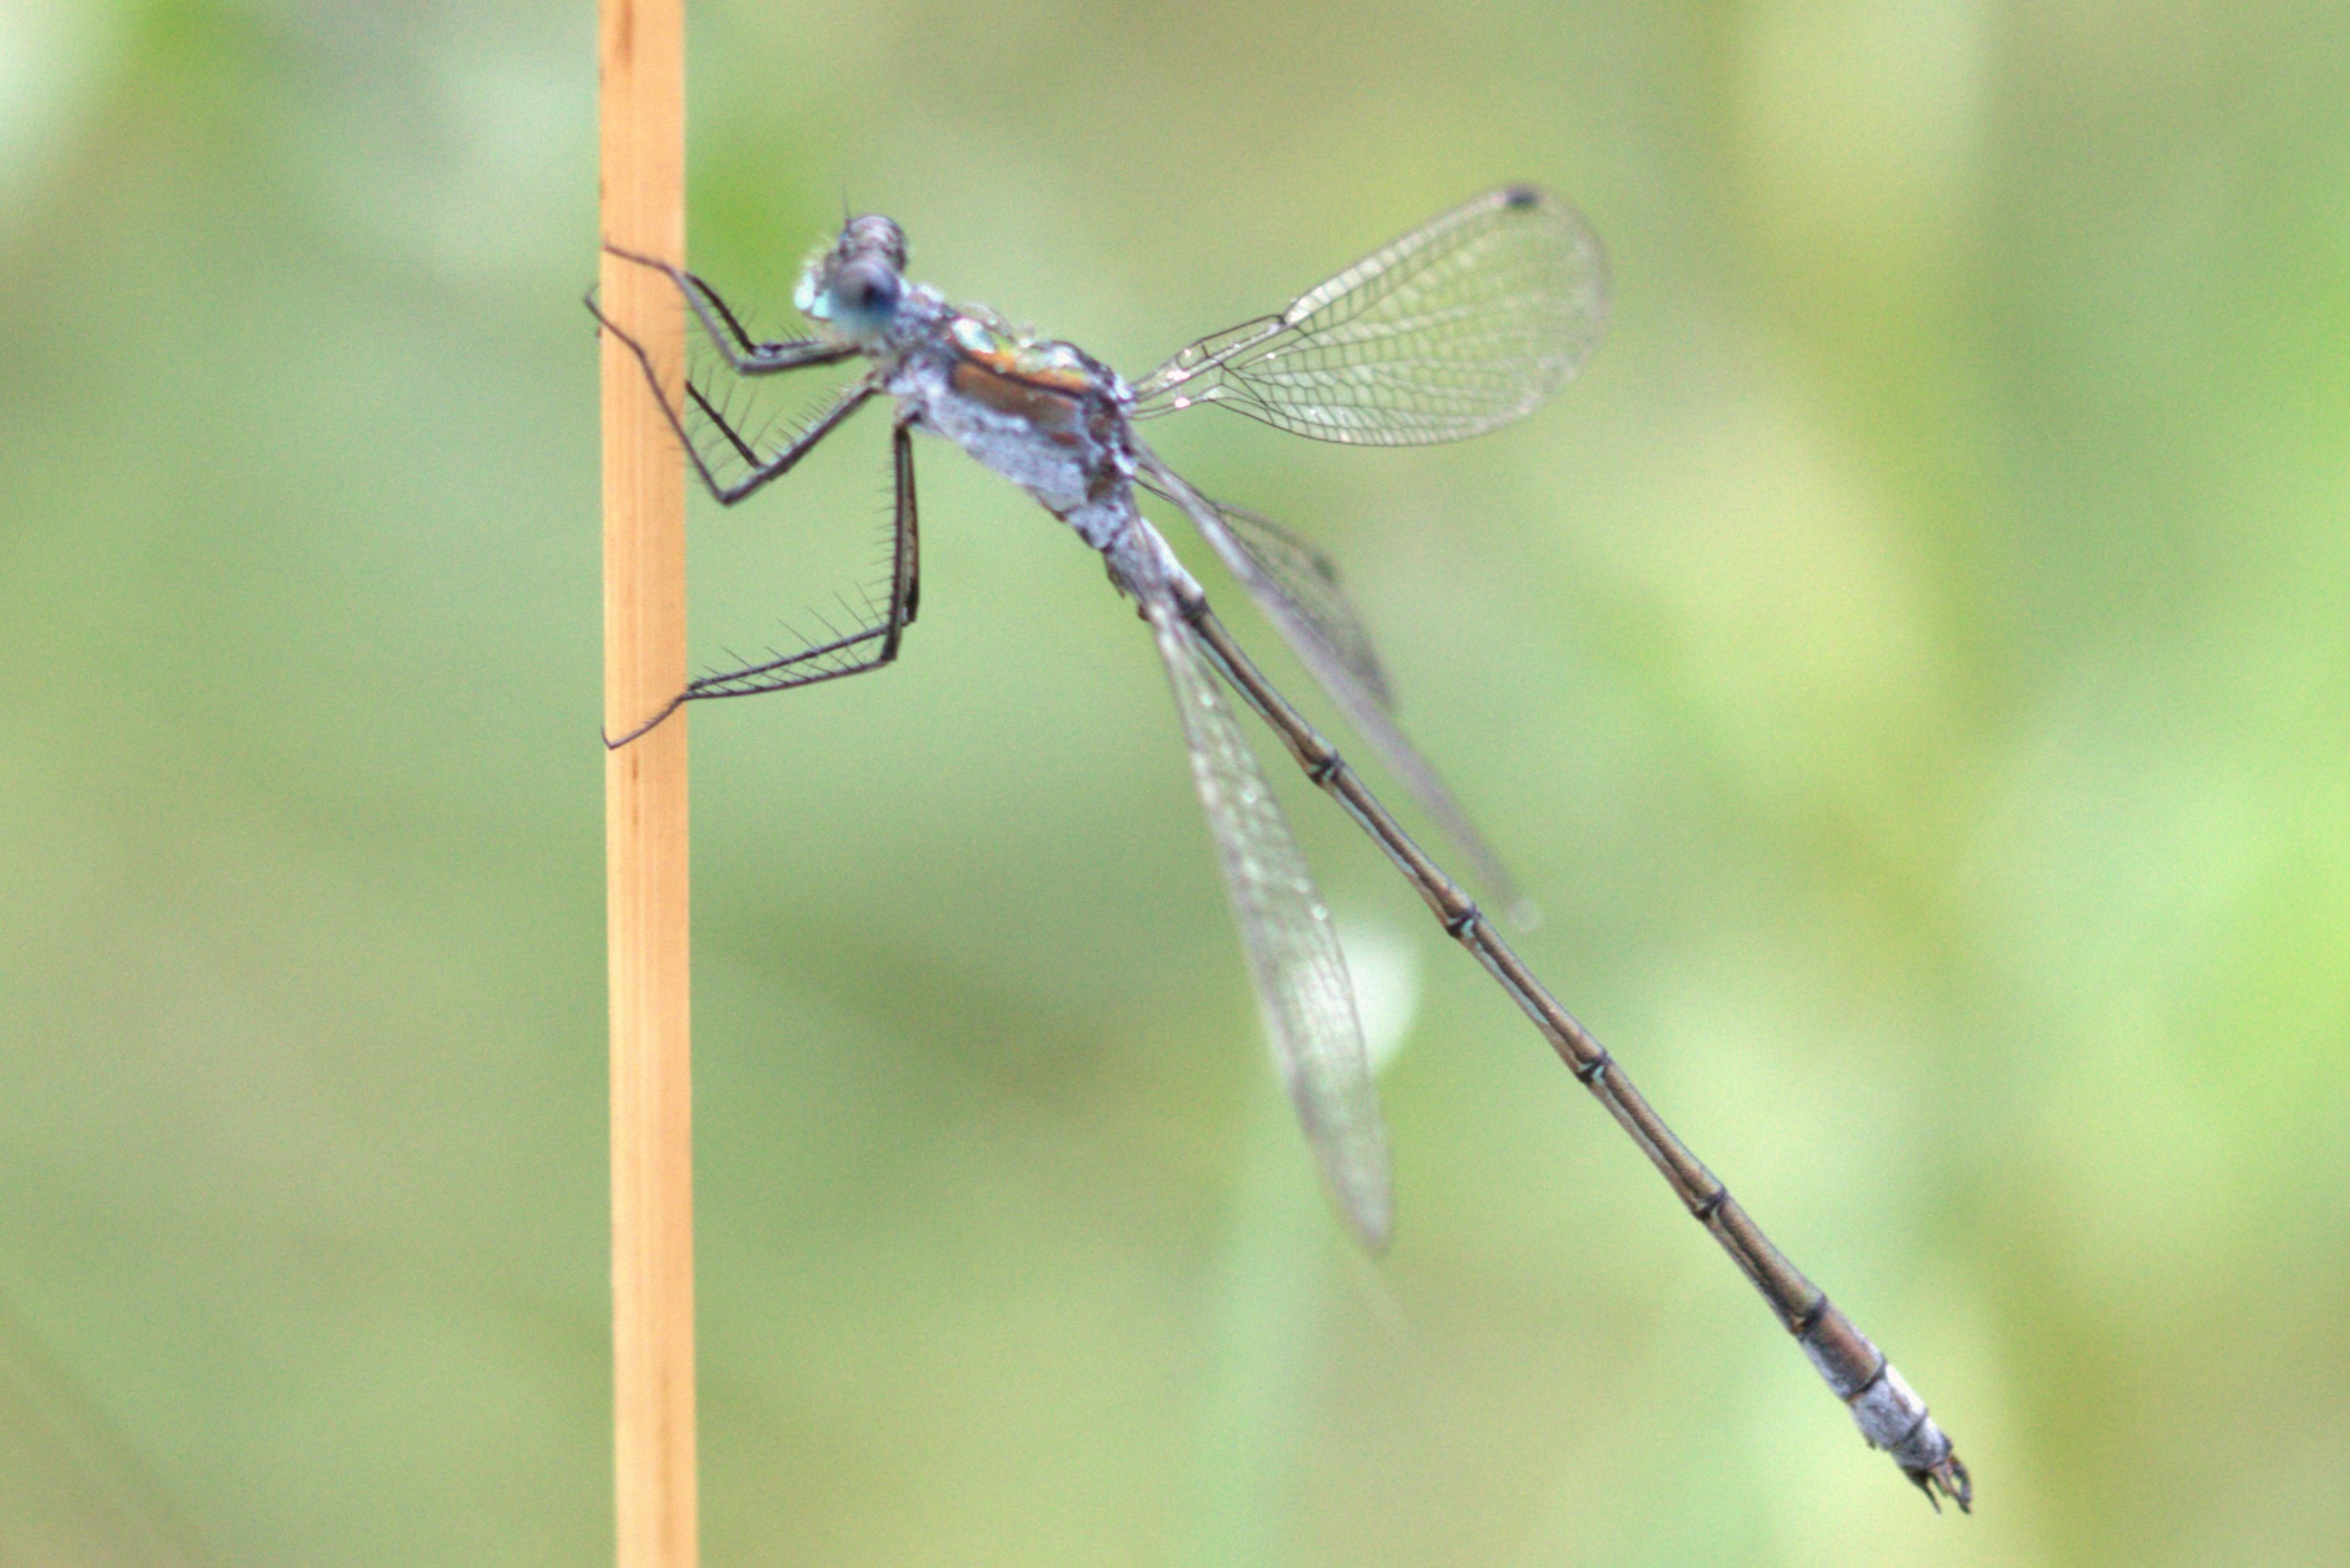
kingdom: Animalia
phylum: Arthropoda
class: Insecta
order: Odonata
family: Lestidae
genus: Lestes
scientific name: Lestes sponsa
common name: Almindelig kobbervandnymfe
